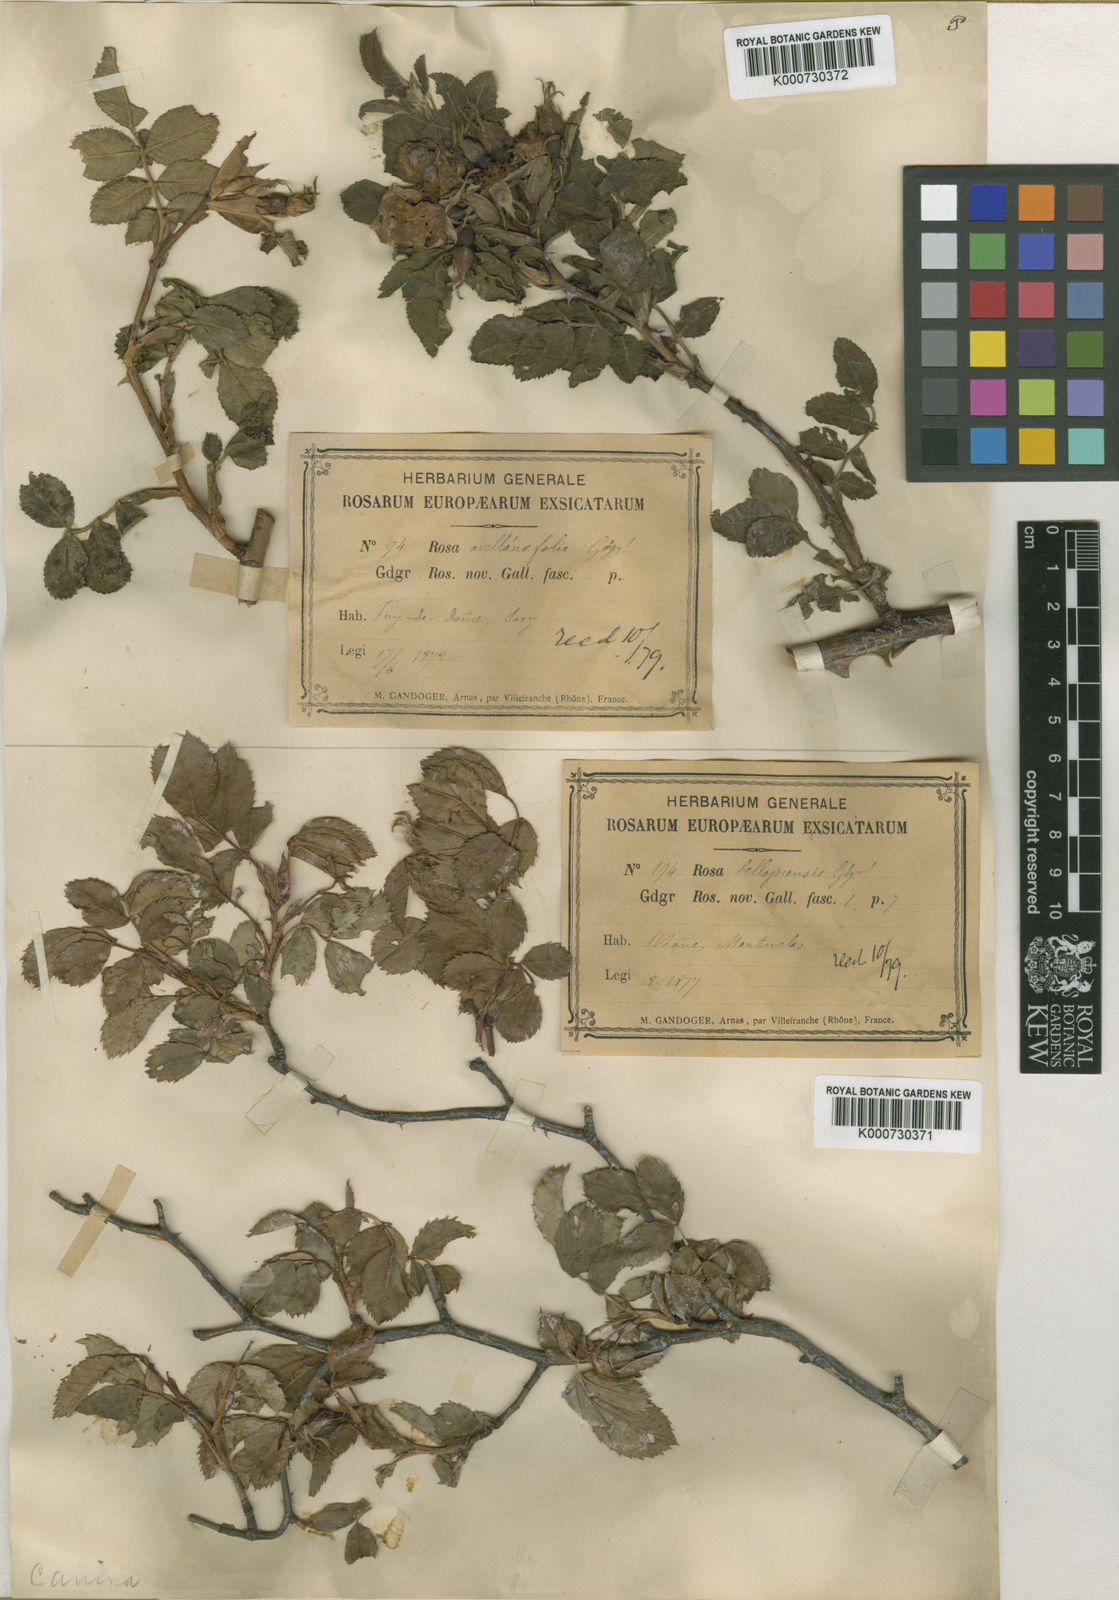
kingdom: Plantae
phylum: Tracheophyta
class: Magnoliopsida
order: Rosales
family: Rosaceae
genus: Rosa
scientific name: Rosa canina
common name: Dog rose
